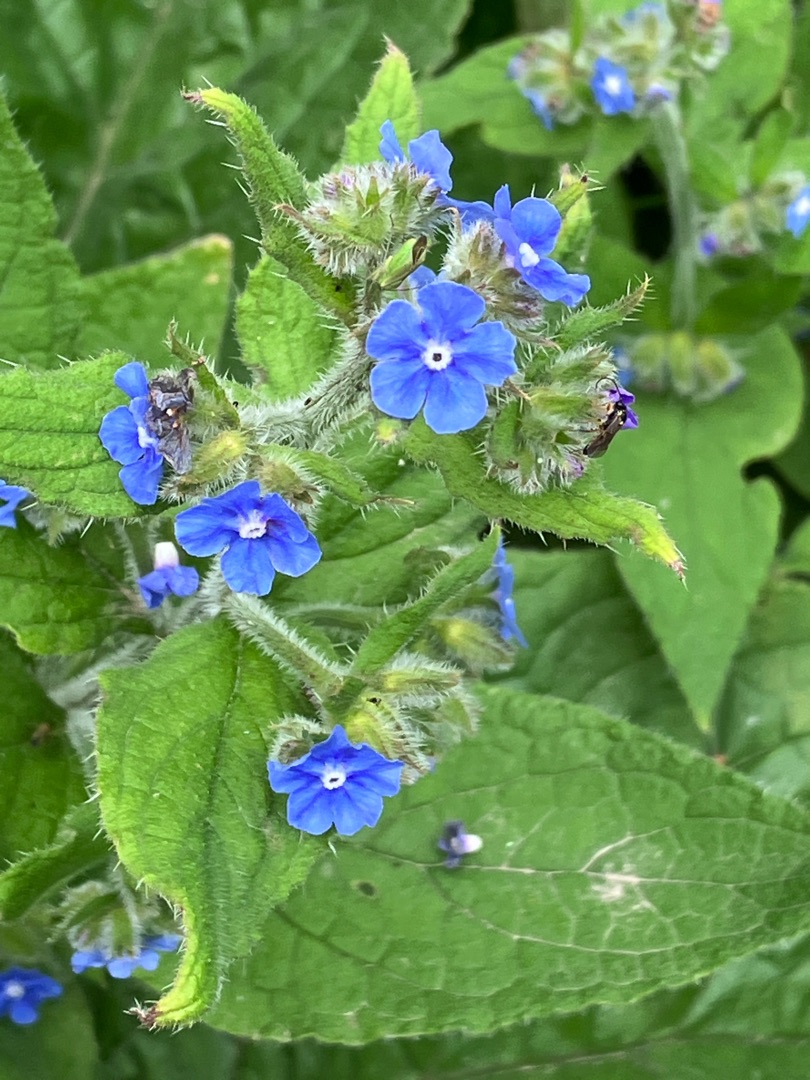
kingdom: Plantae
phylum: Tracheophyta
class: Magnoliopsida
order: Boraginales
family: Boraginaceae
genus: Pentaglottis
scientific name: Pentaglottis sempervirens
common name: Femtunge
